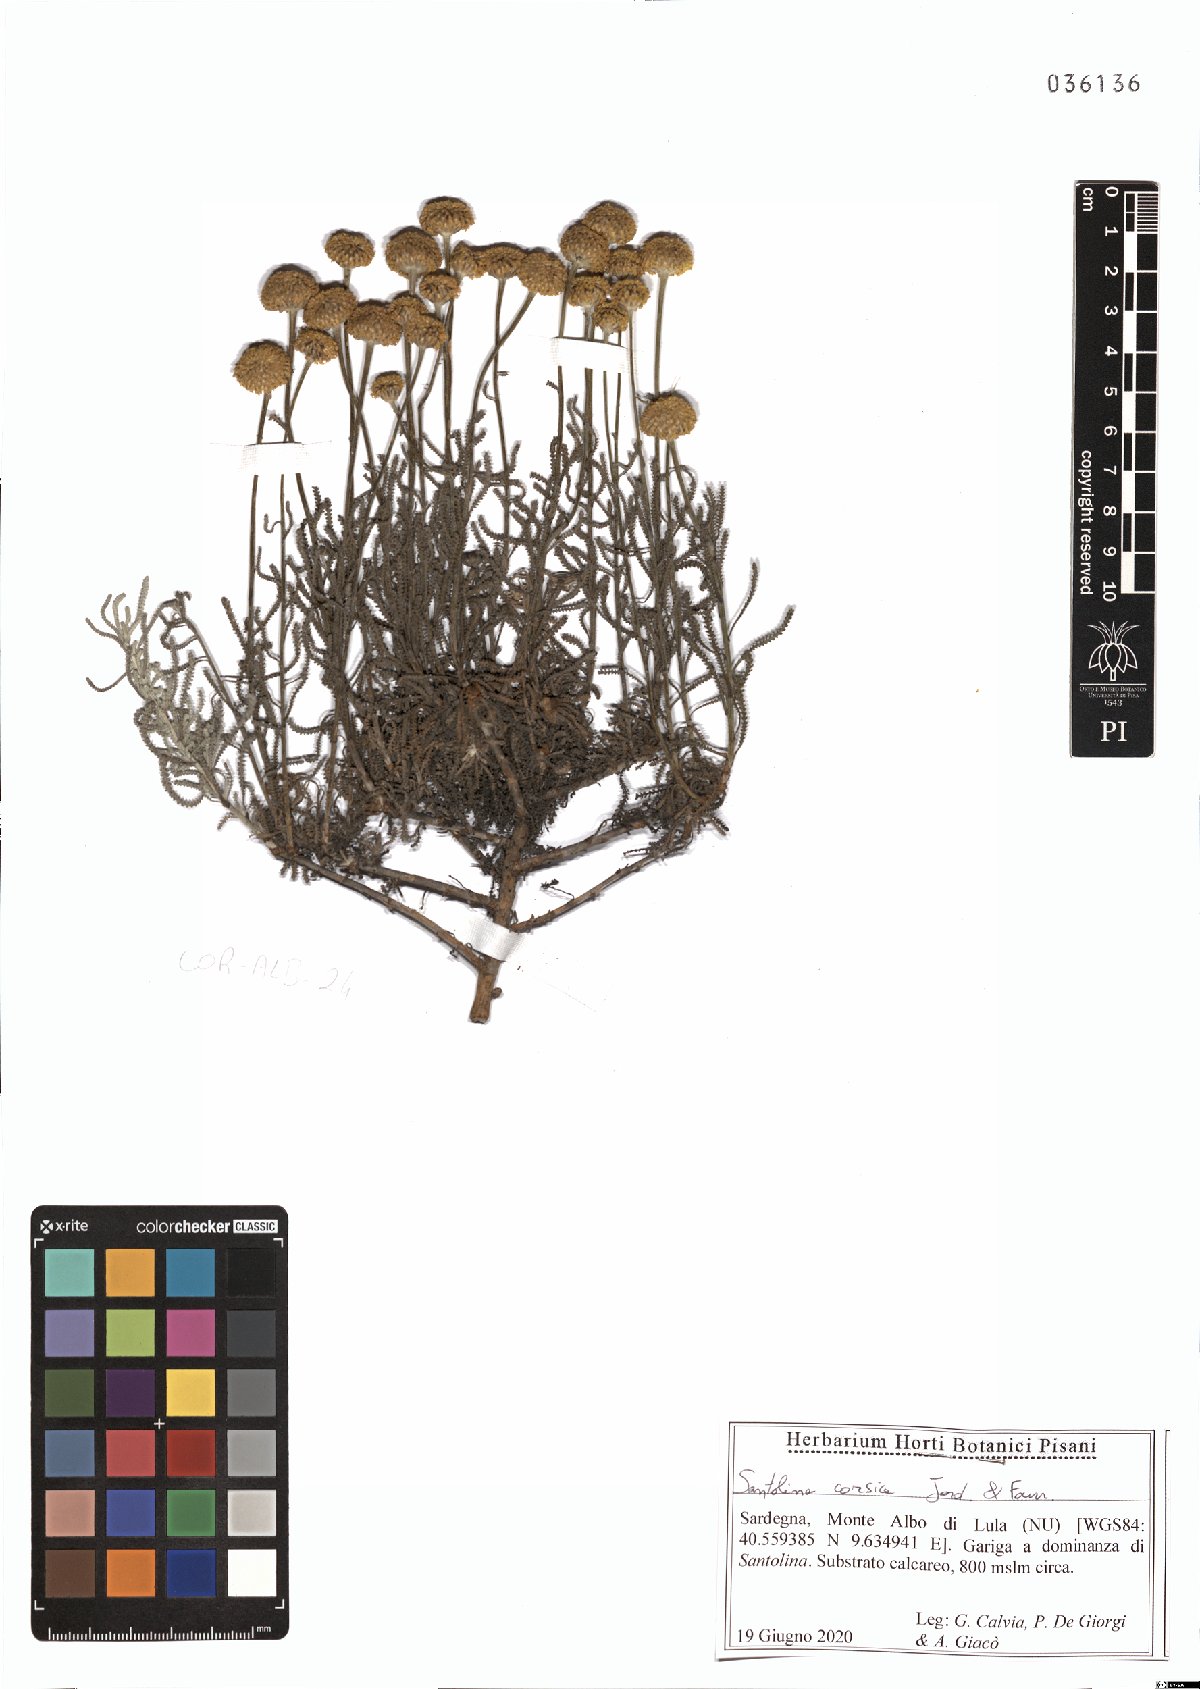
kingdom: Plantae
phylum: Tracheophyta
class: Magnoliopsida
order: Asterales
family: Asteraceae
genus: Santolina
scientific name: Santolina corsica
